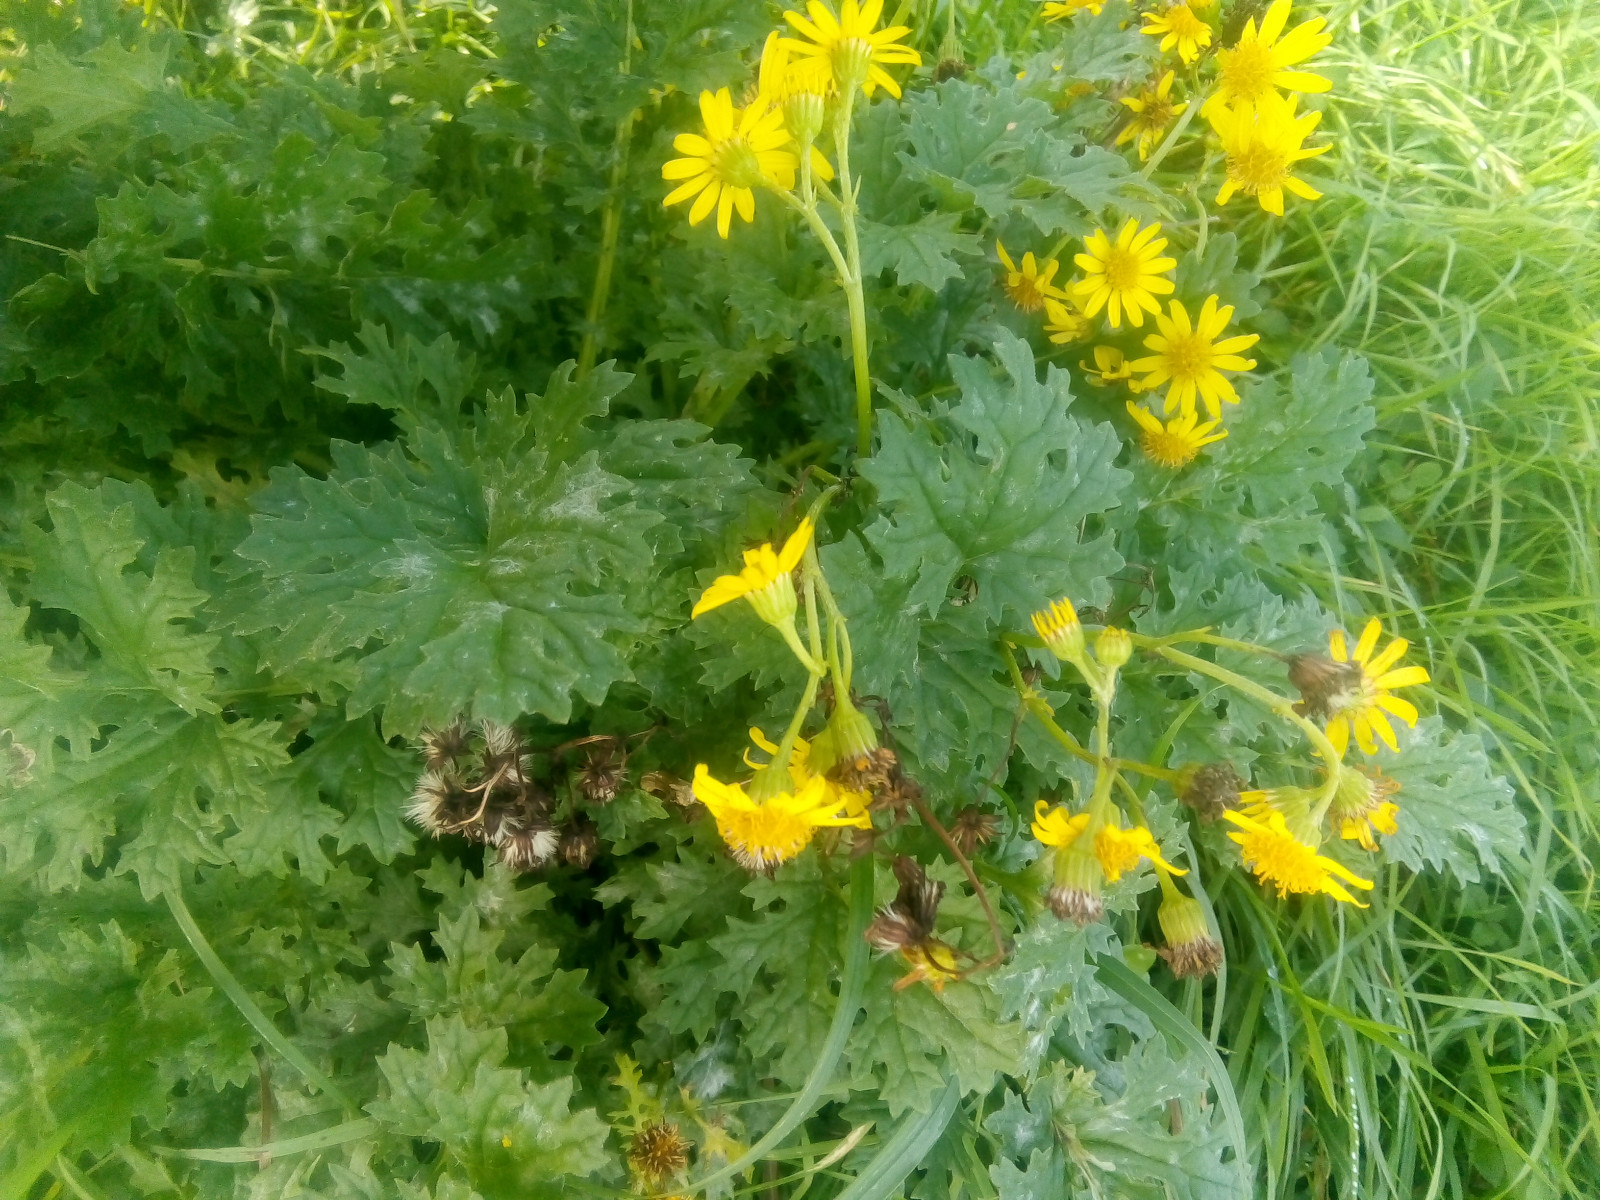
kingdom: Fungi
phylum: Ascomycota
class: Leotiomycetes
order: Helotiales
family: Erysiphaceae
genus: Podosphaera
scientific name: Podosphaera senecionis
